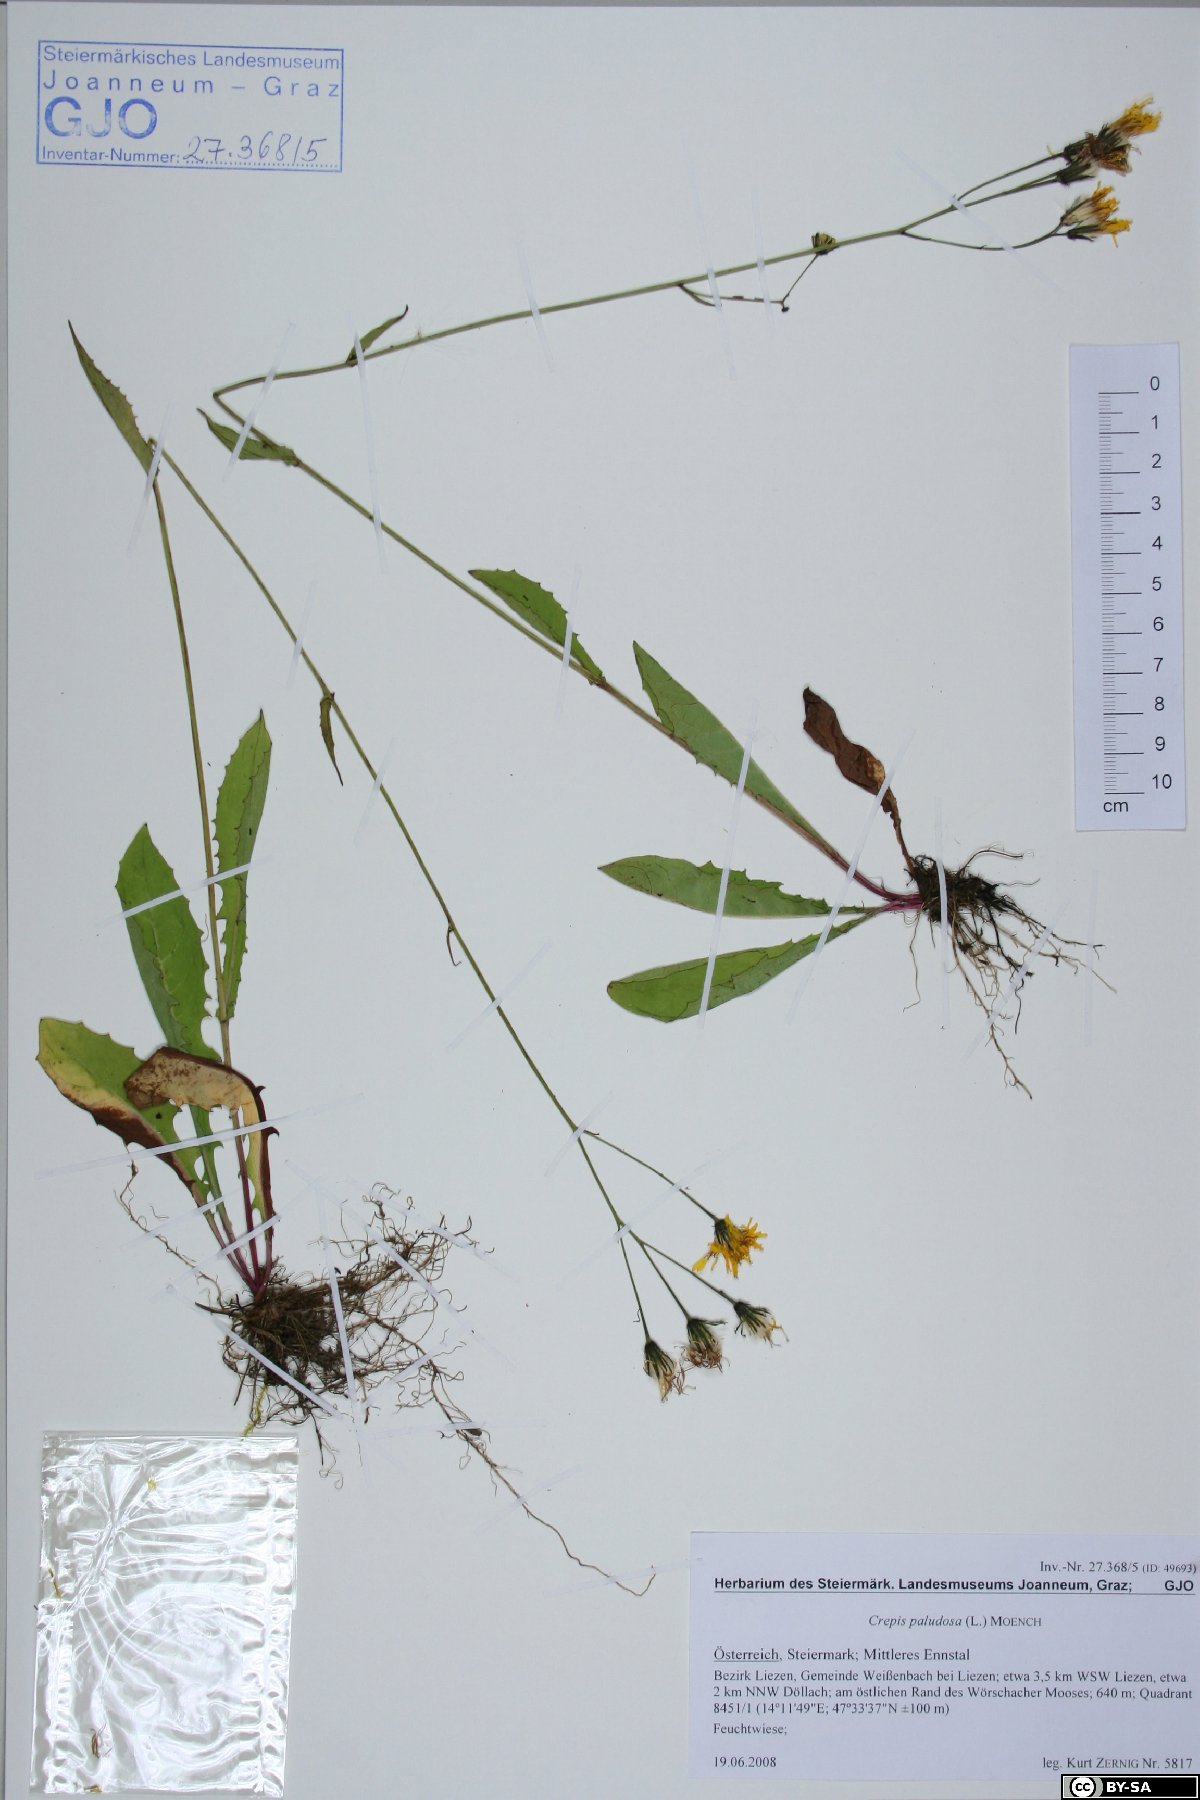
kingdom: Plantae
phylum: Tracheophyta
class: Magnoliopsida
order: Asterales
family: Asteraceae
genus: Crepis
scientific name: Crepis paludosa
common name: Marsh hawk's-beard
